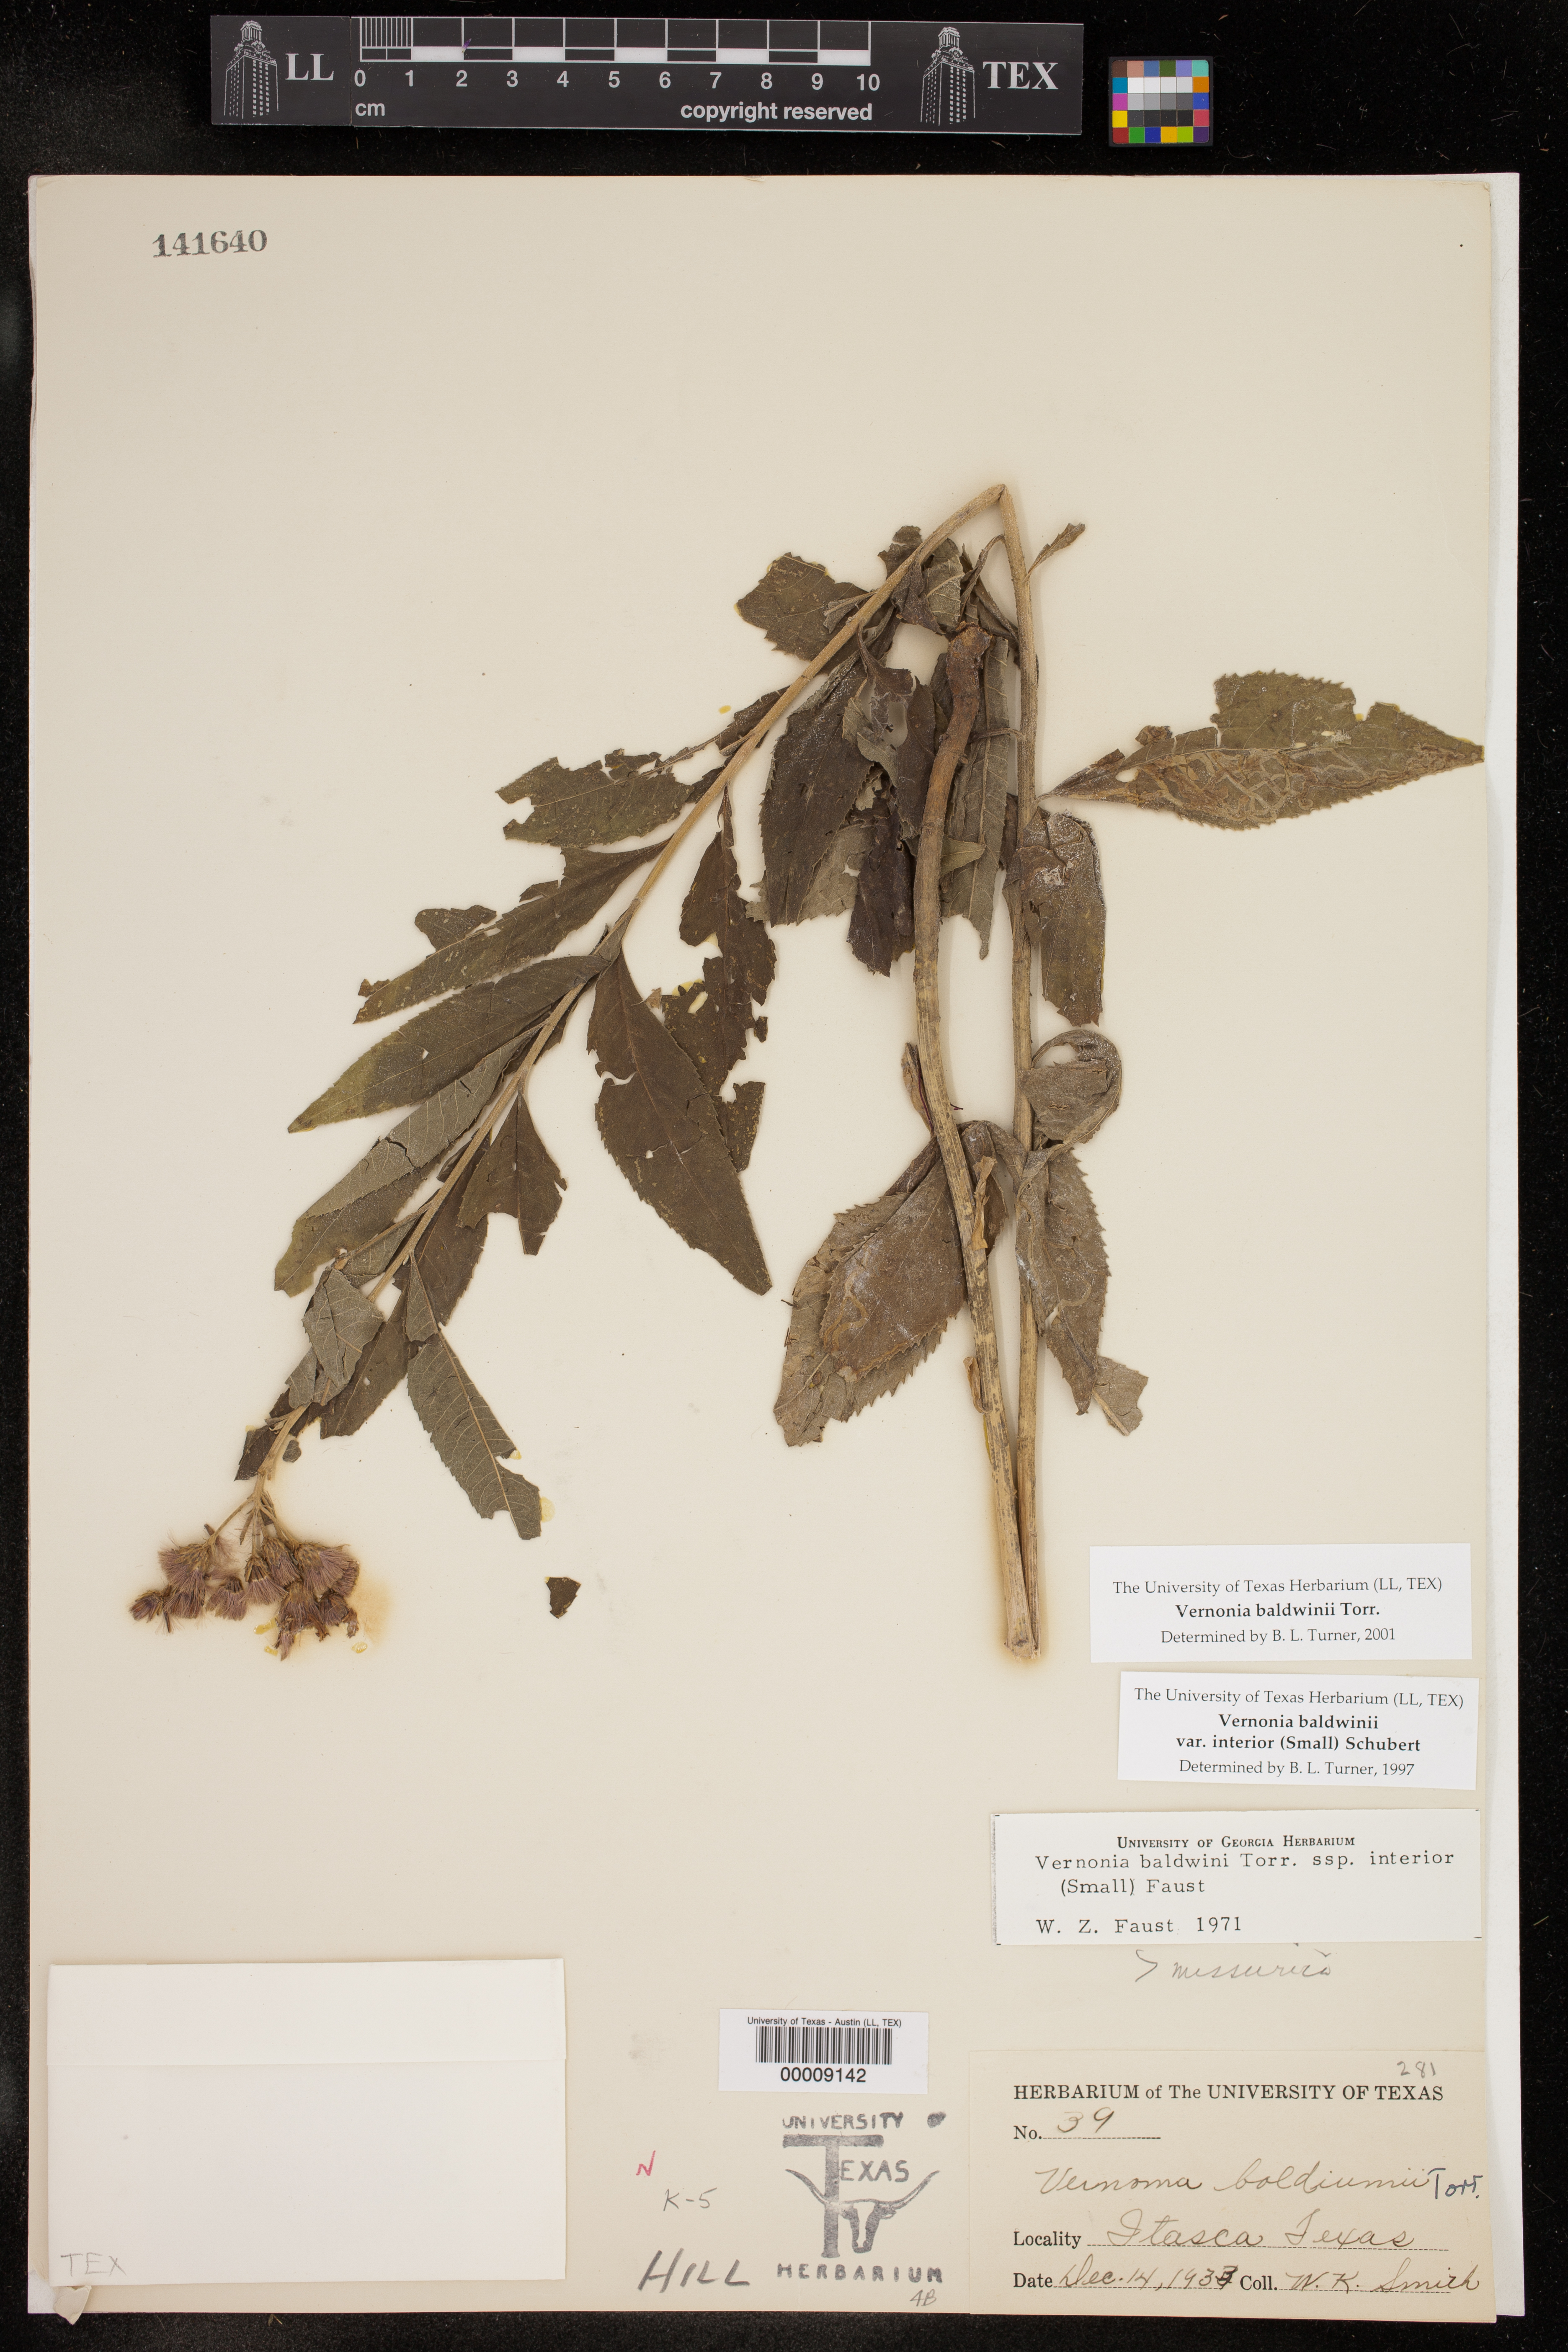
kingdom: Plantae
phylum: Tracheophyta
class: Magnoliopsida
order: Asterales
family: Asteraceae
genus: Vernonia
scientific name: Vernonia baldwinii
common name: Western ironweed
